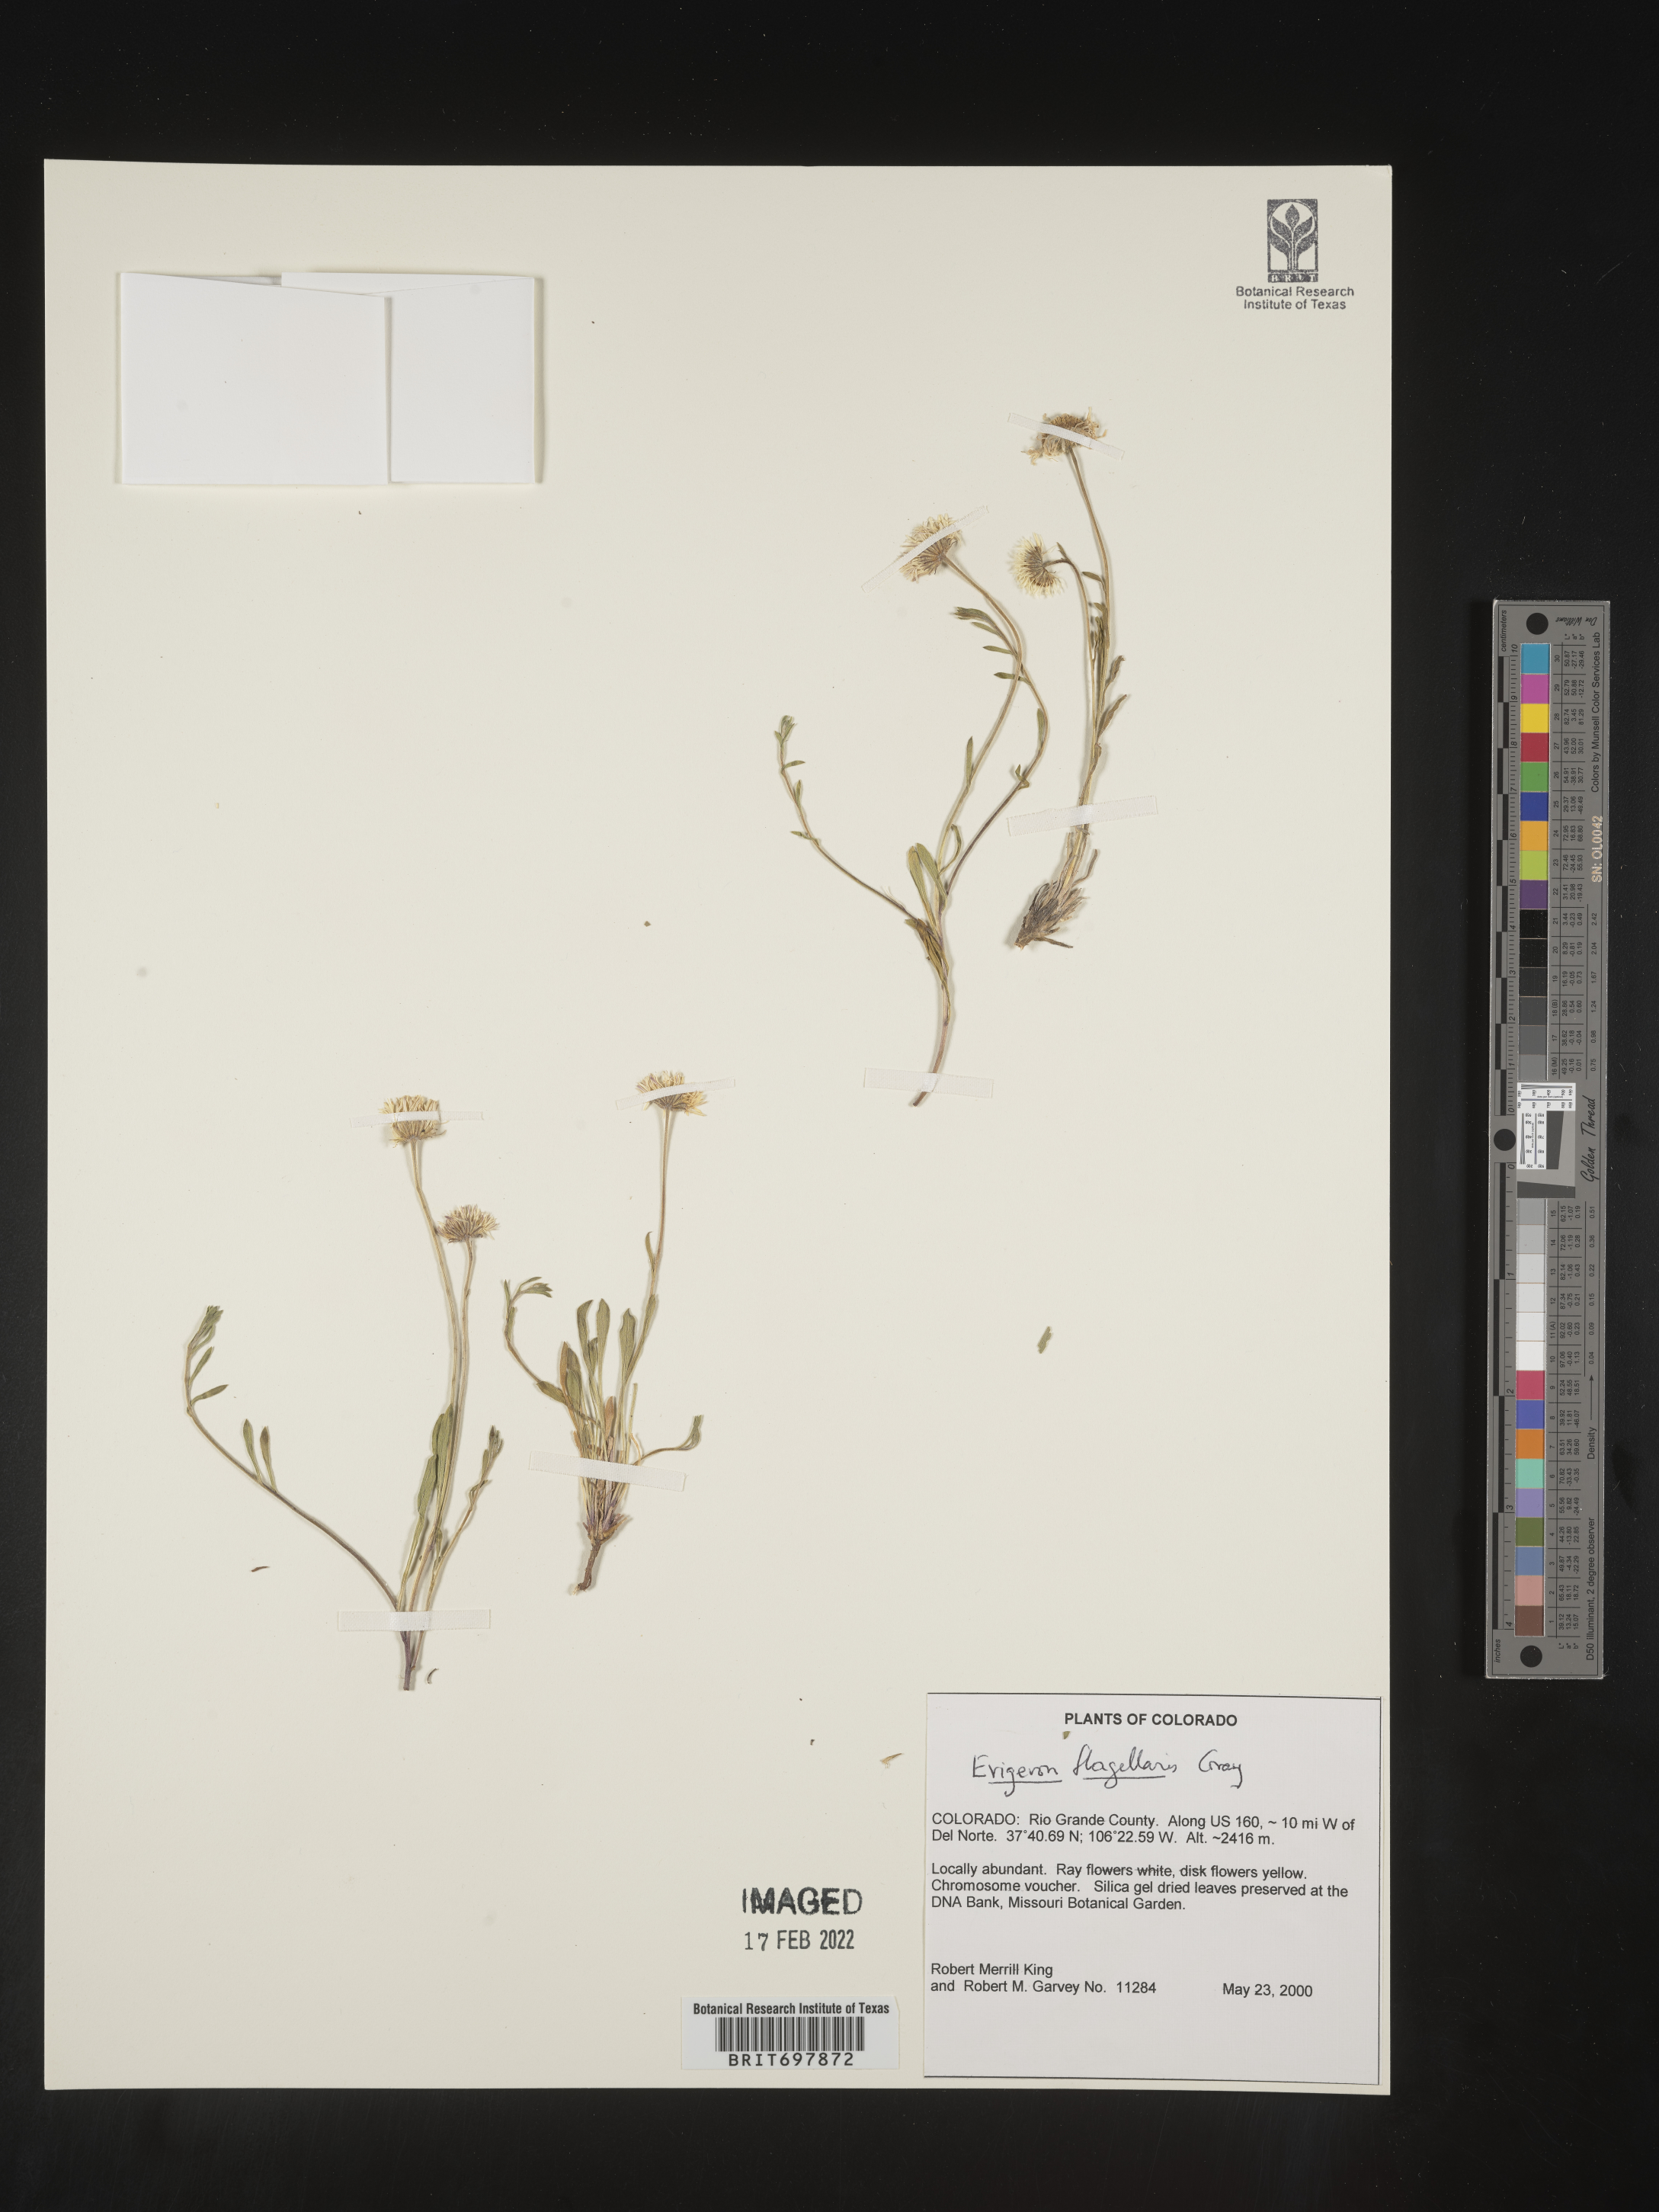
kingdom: Plantae
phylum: Tracheophyta
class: Magnoliopsida
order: Asterales
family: Asteraceae
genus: Erigeron
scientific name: Erigeron flagellaris
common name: Running fleabane
